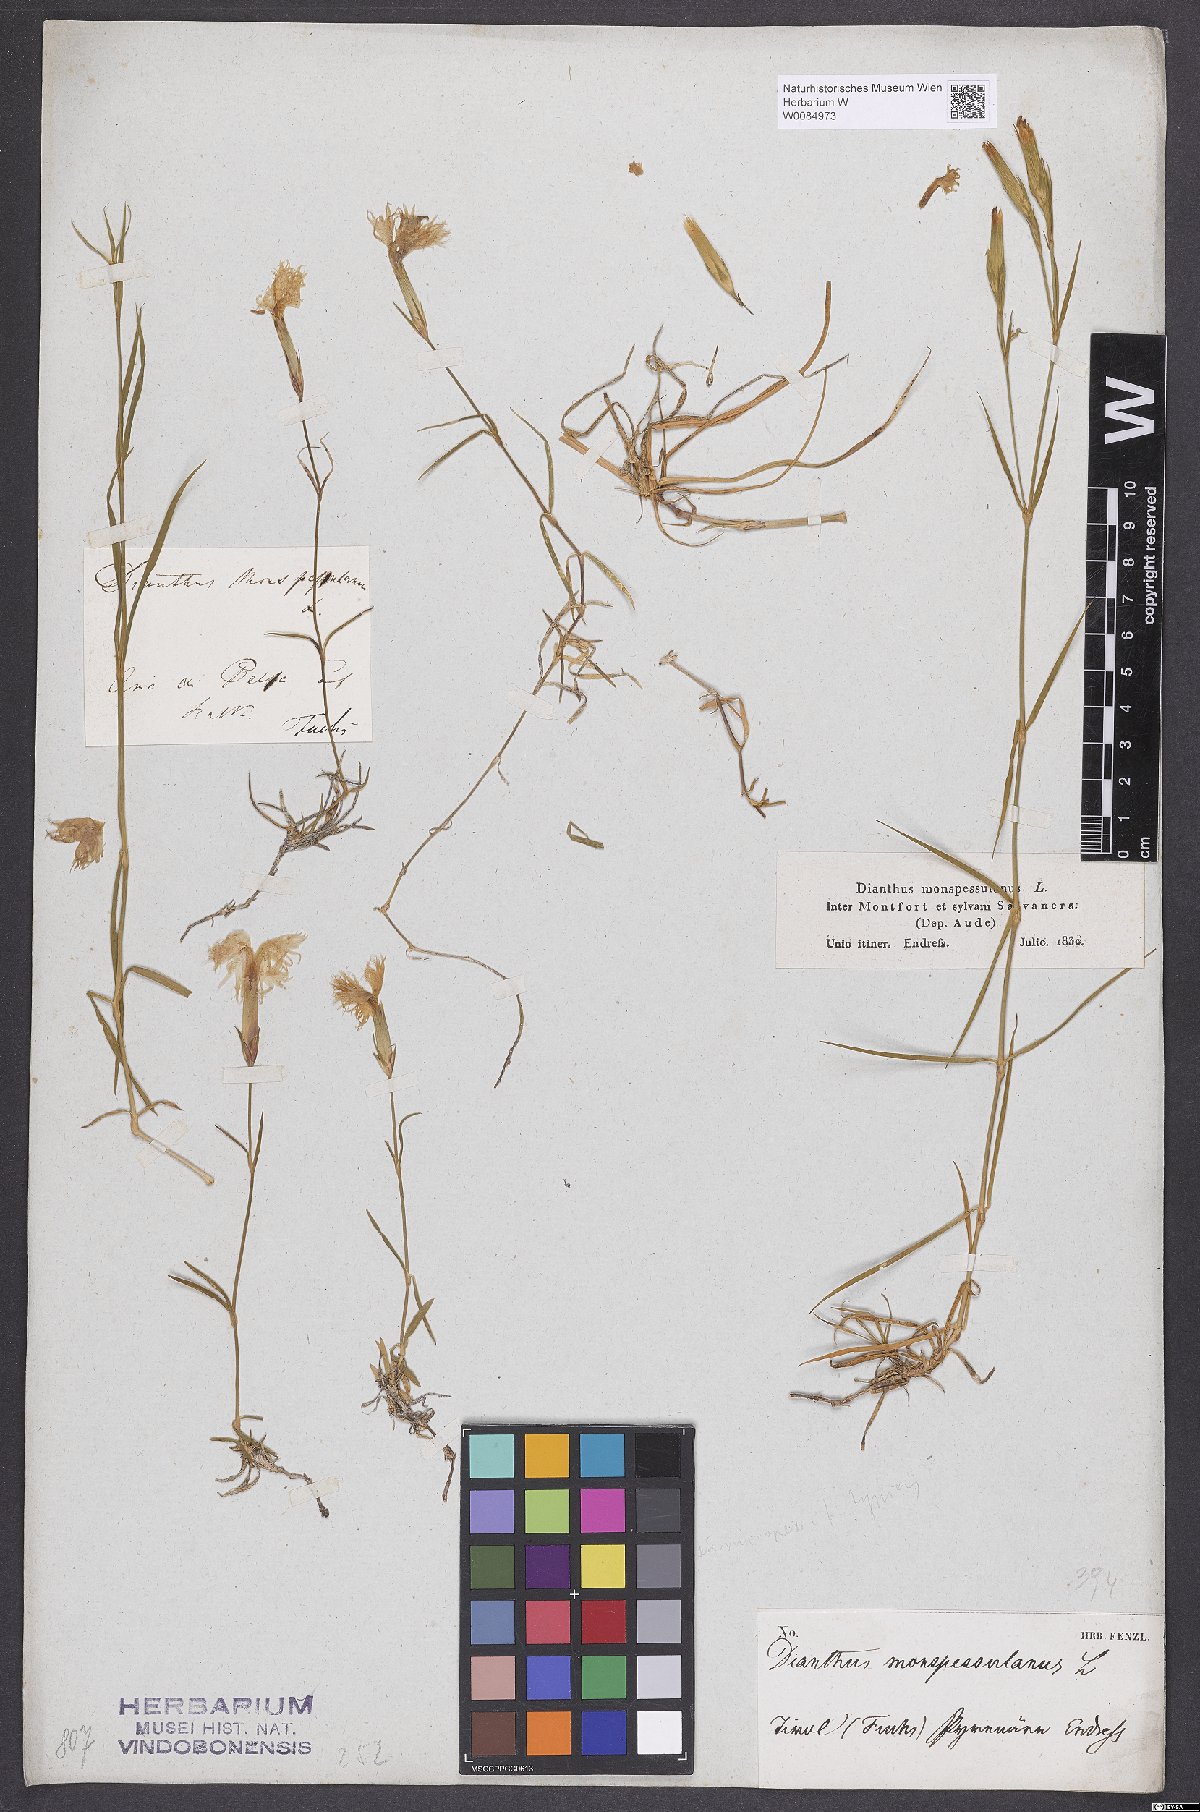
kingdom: Plantae
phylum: Tracheophyta
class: Magnoliopsida
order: Caryophyllales
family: Caryophyllaceae
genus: Dianthus
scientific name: Dianthus hyssopifolius
